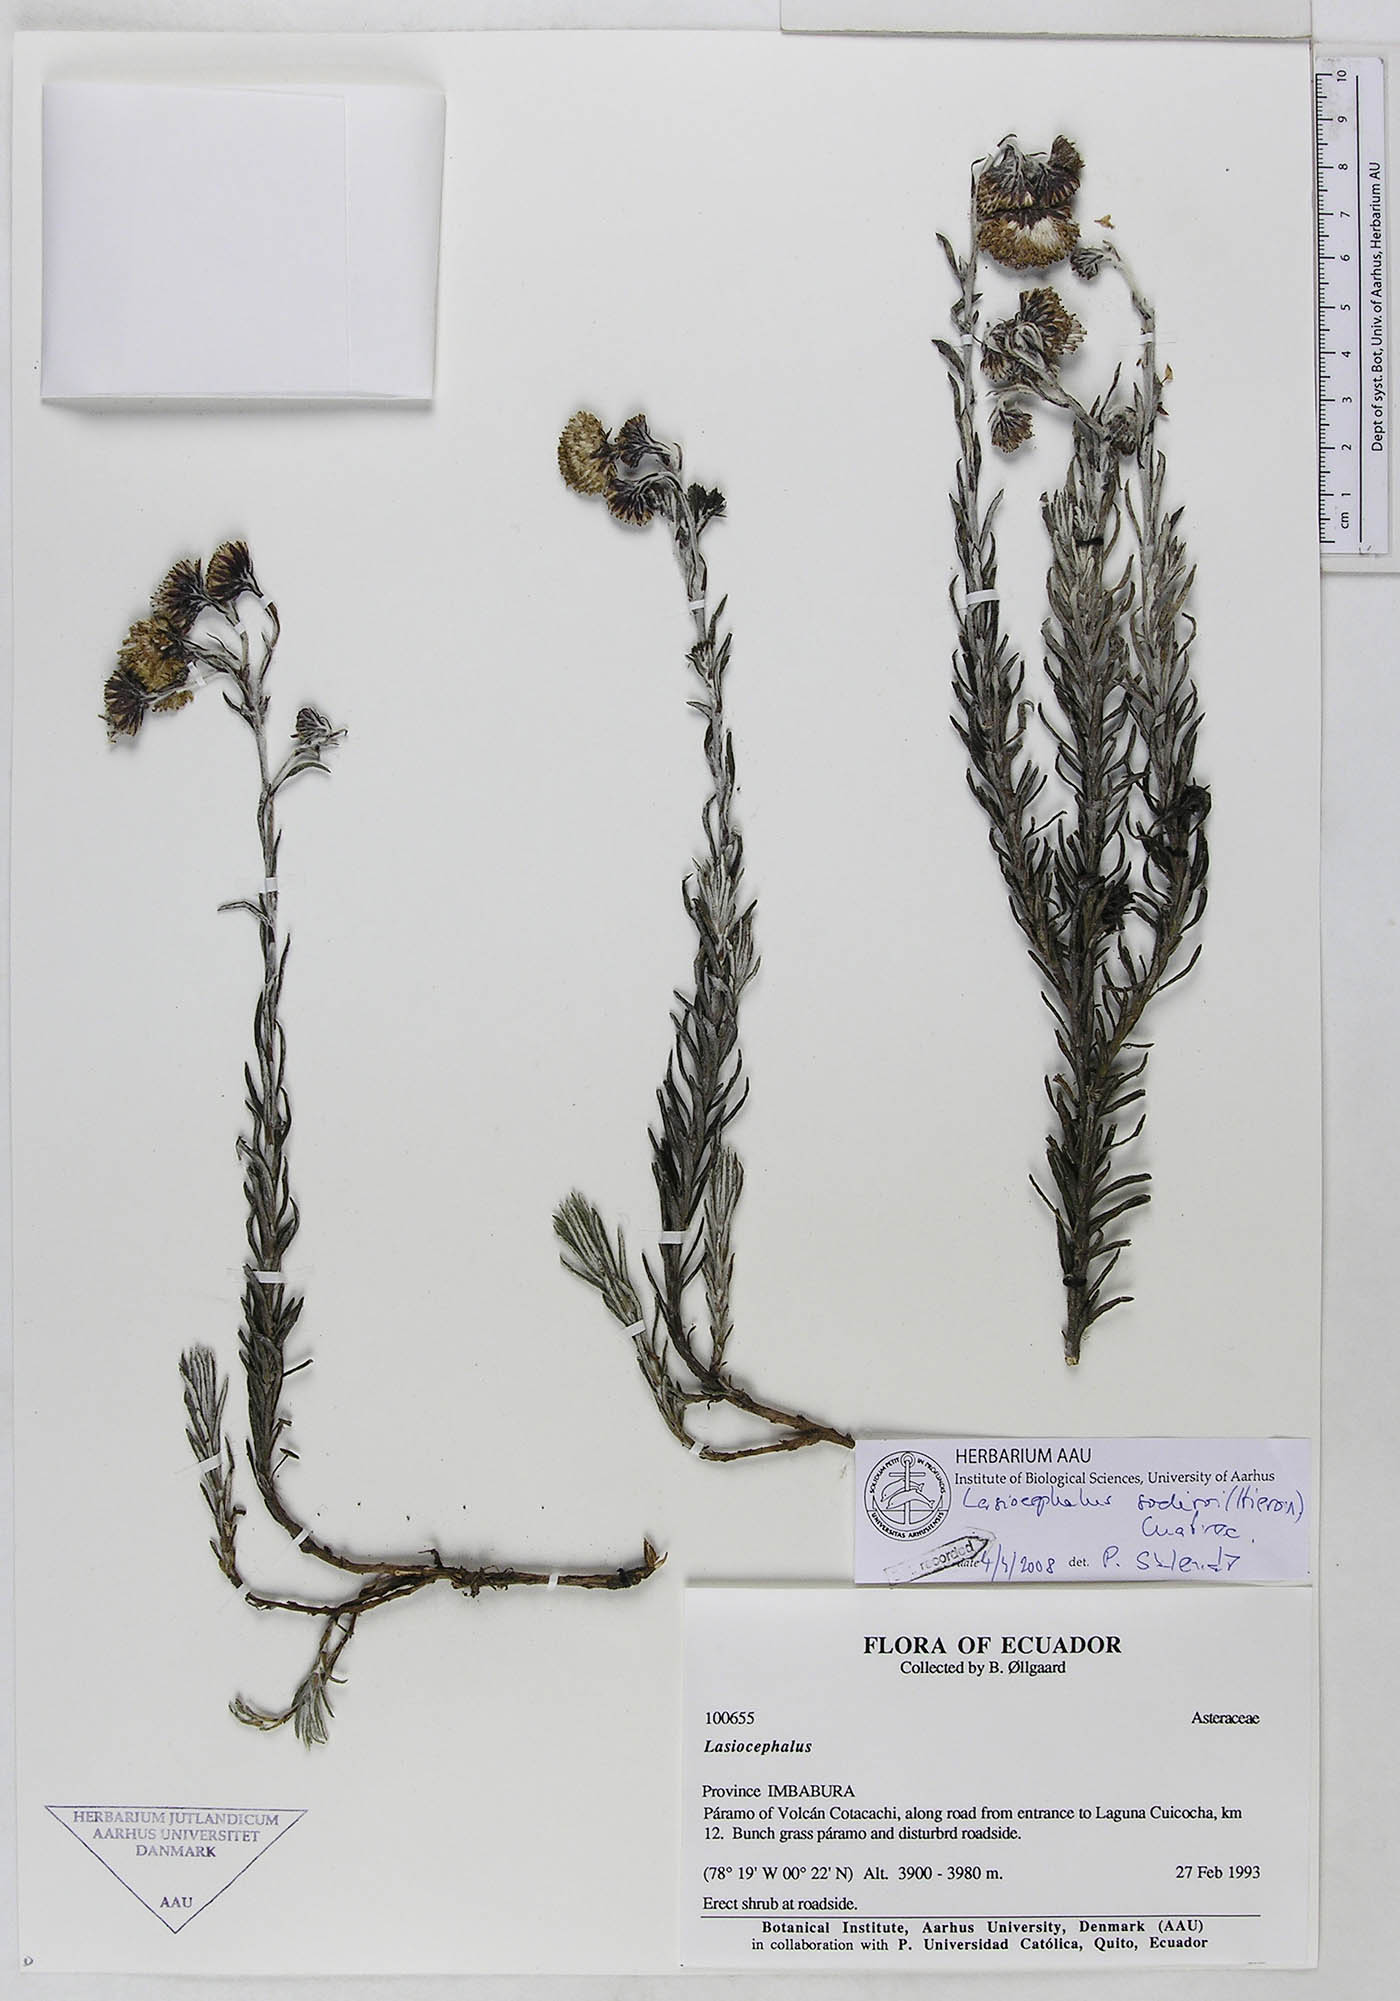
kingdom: Plantae
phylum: Tracheophyta
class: Magnoliopsida
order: Asterales
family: Asteraceae
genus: Lasiocephalus
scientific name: Lasiocephalus peruvianus
